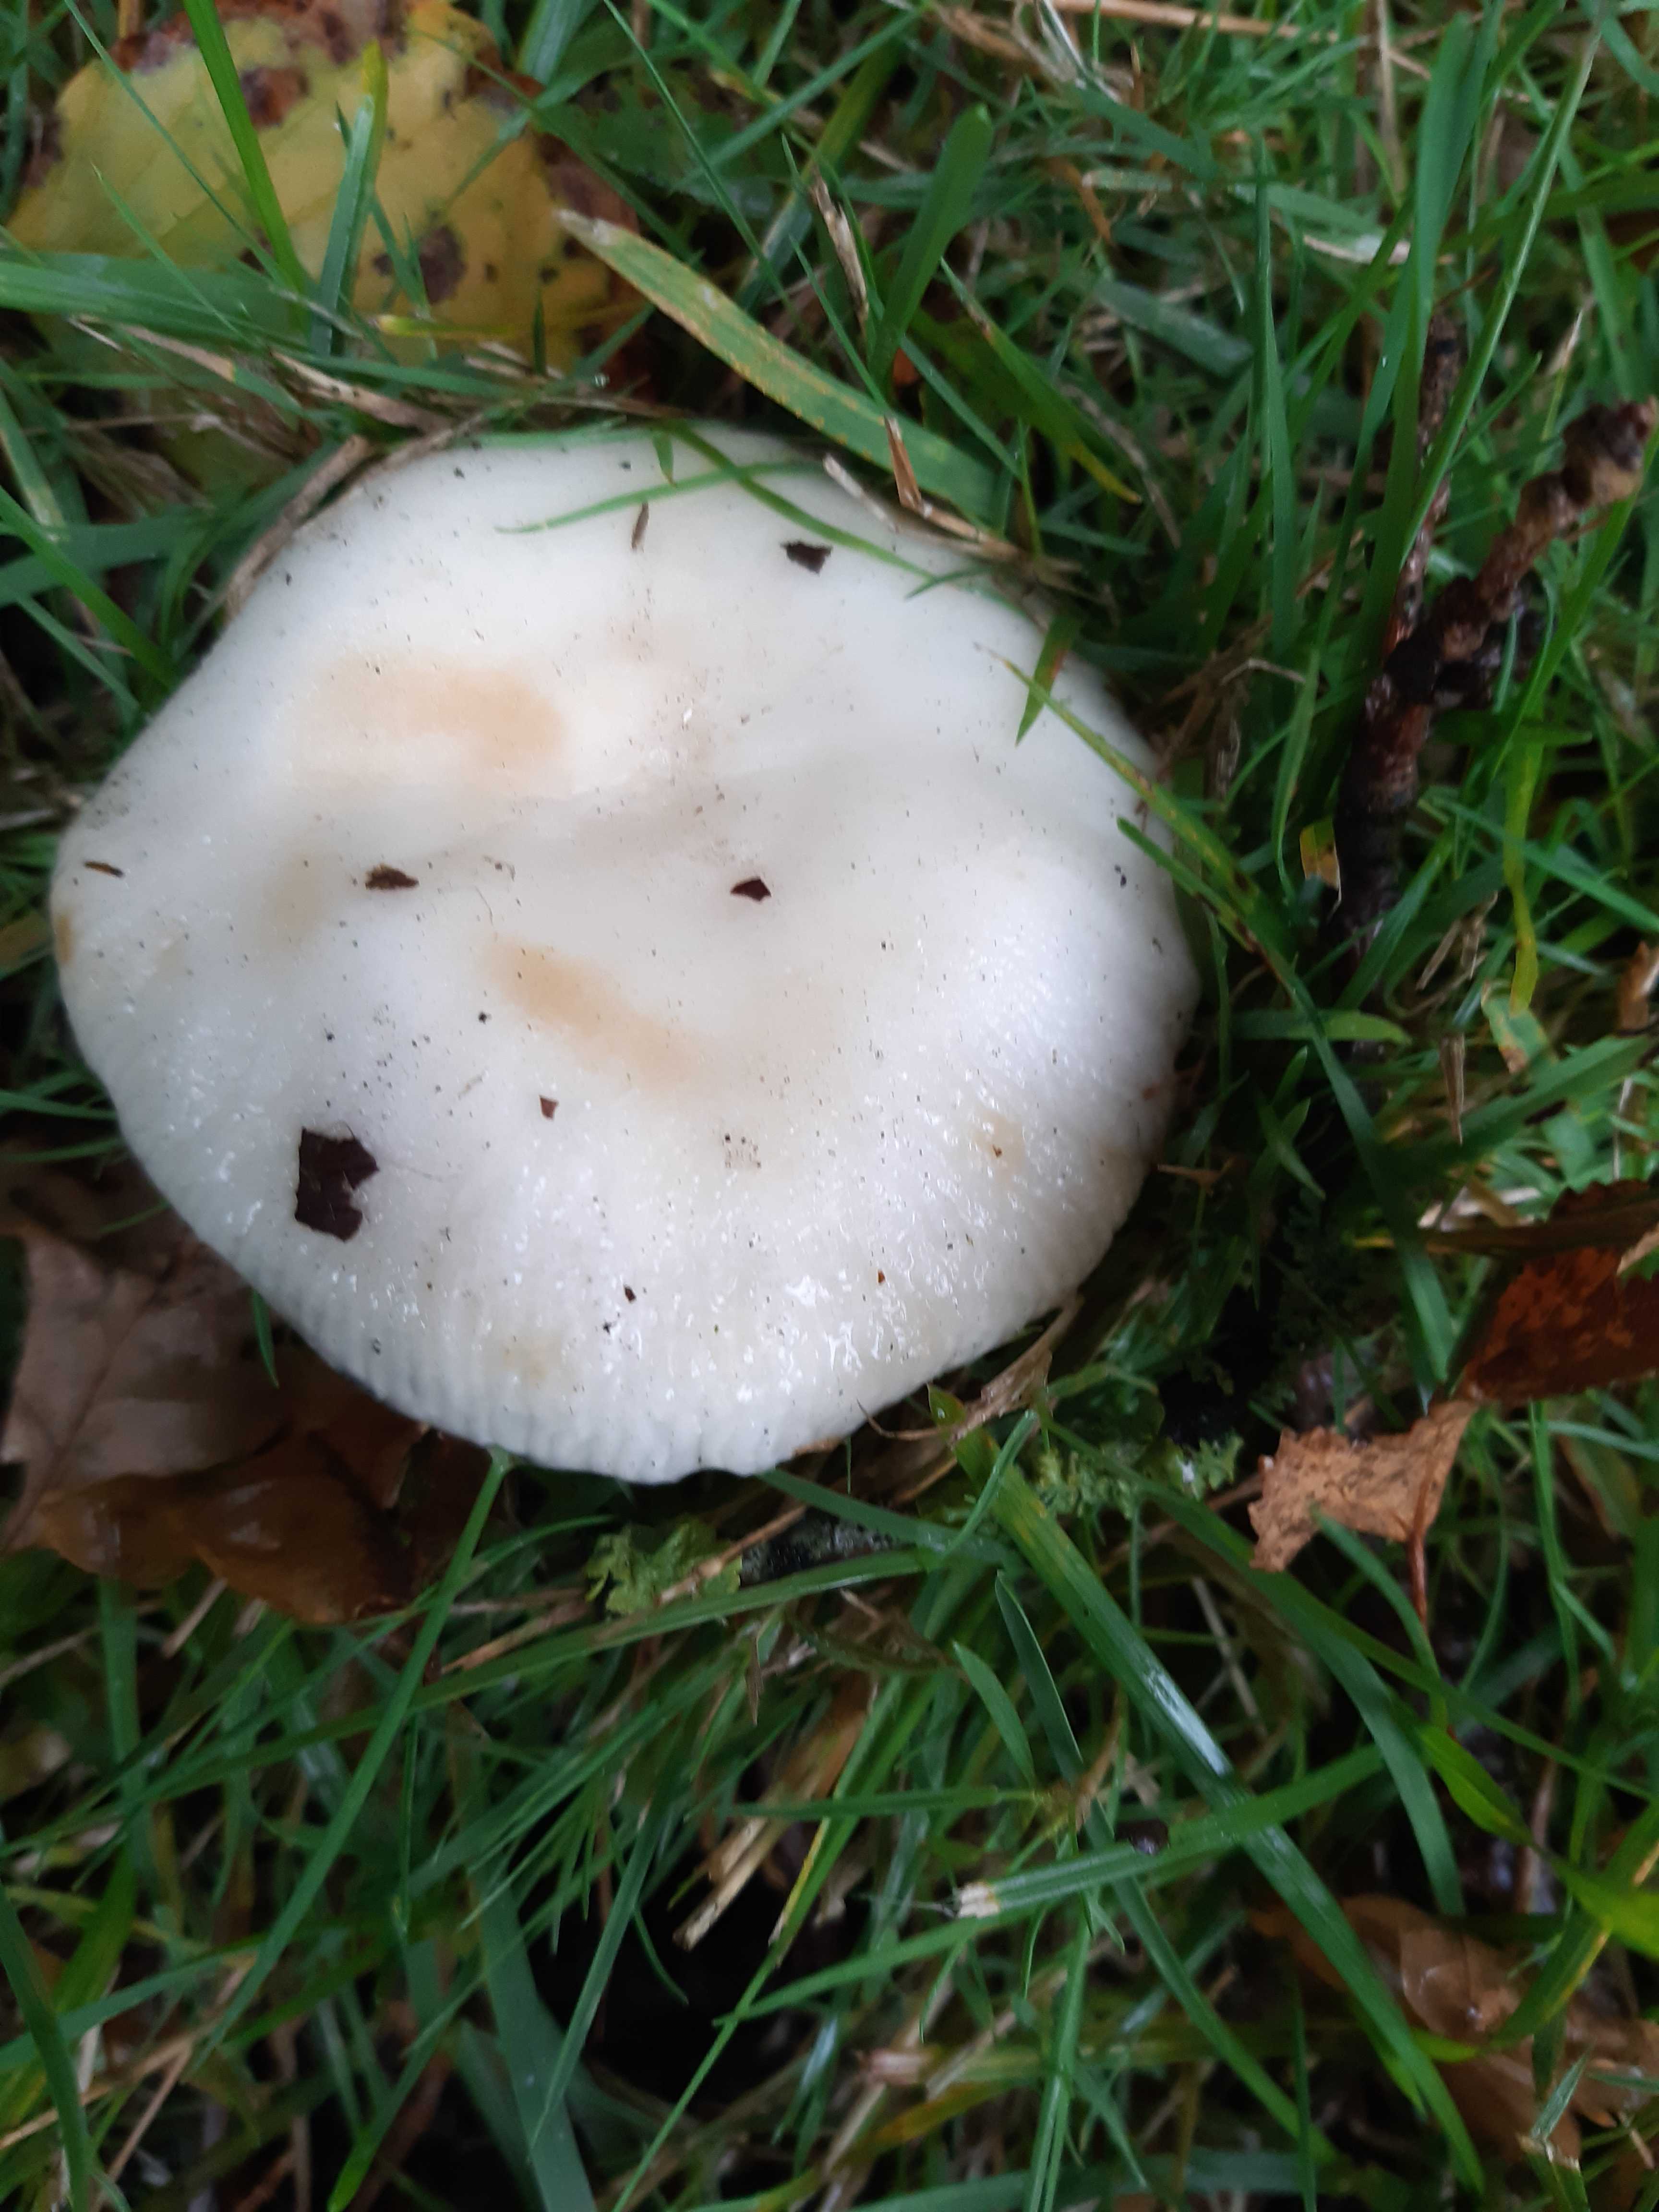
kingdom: Fungi
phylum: Basidiomycota
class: Agaricomycetes
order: Russulales
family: Russulaceae
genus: Russula
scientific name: Russula
